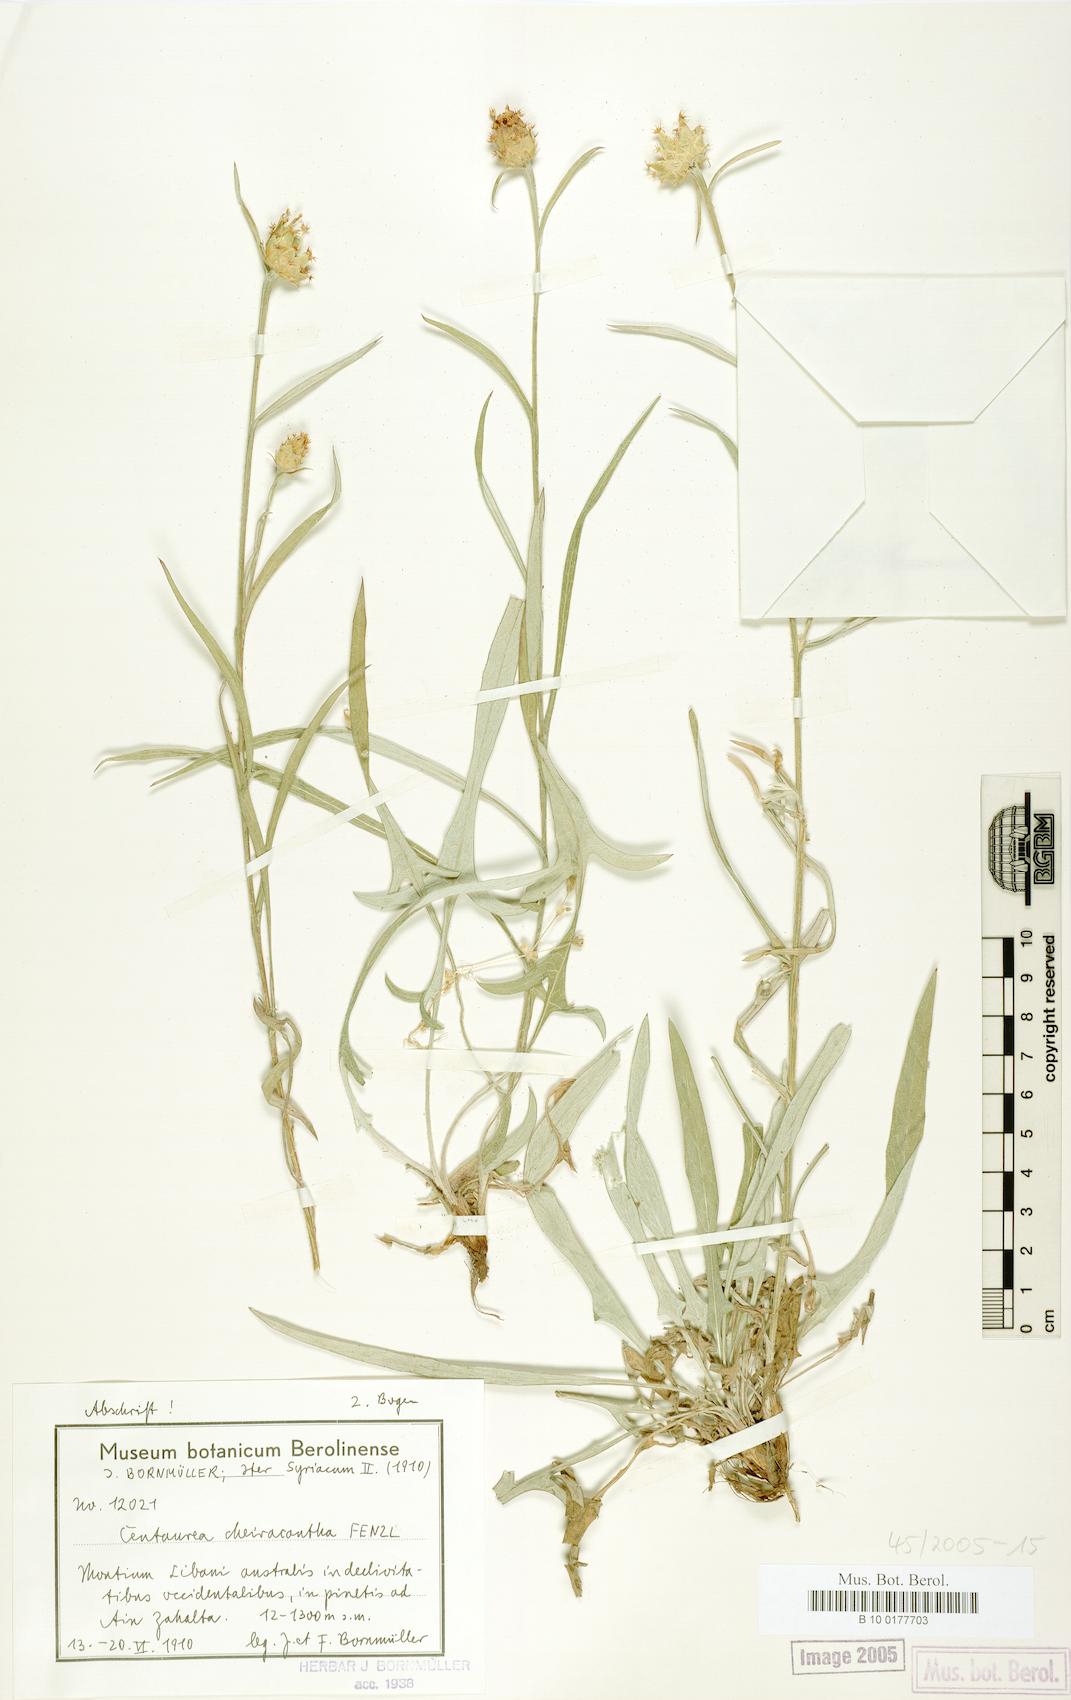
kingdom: Plantae
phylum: Tracheophyta
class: Magnoliopsida
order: Asterales
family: Asteraceae
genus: Centaurea
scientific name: Centaurea cheirolopha
